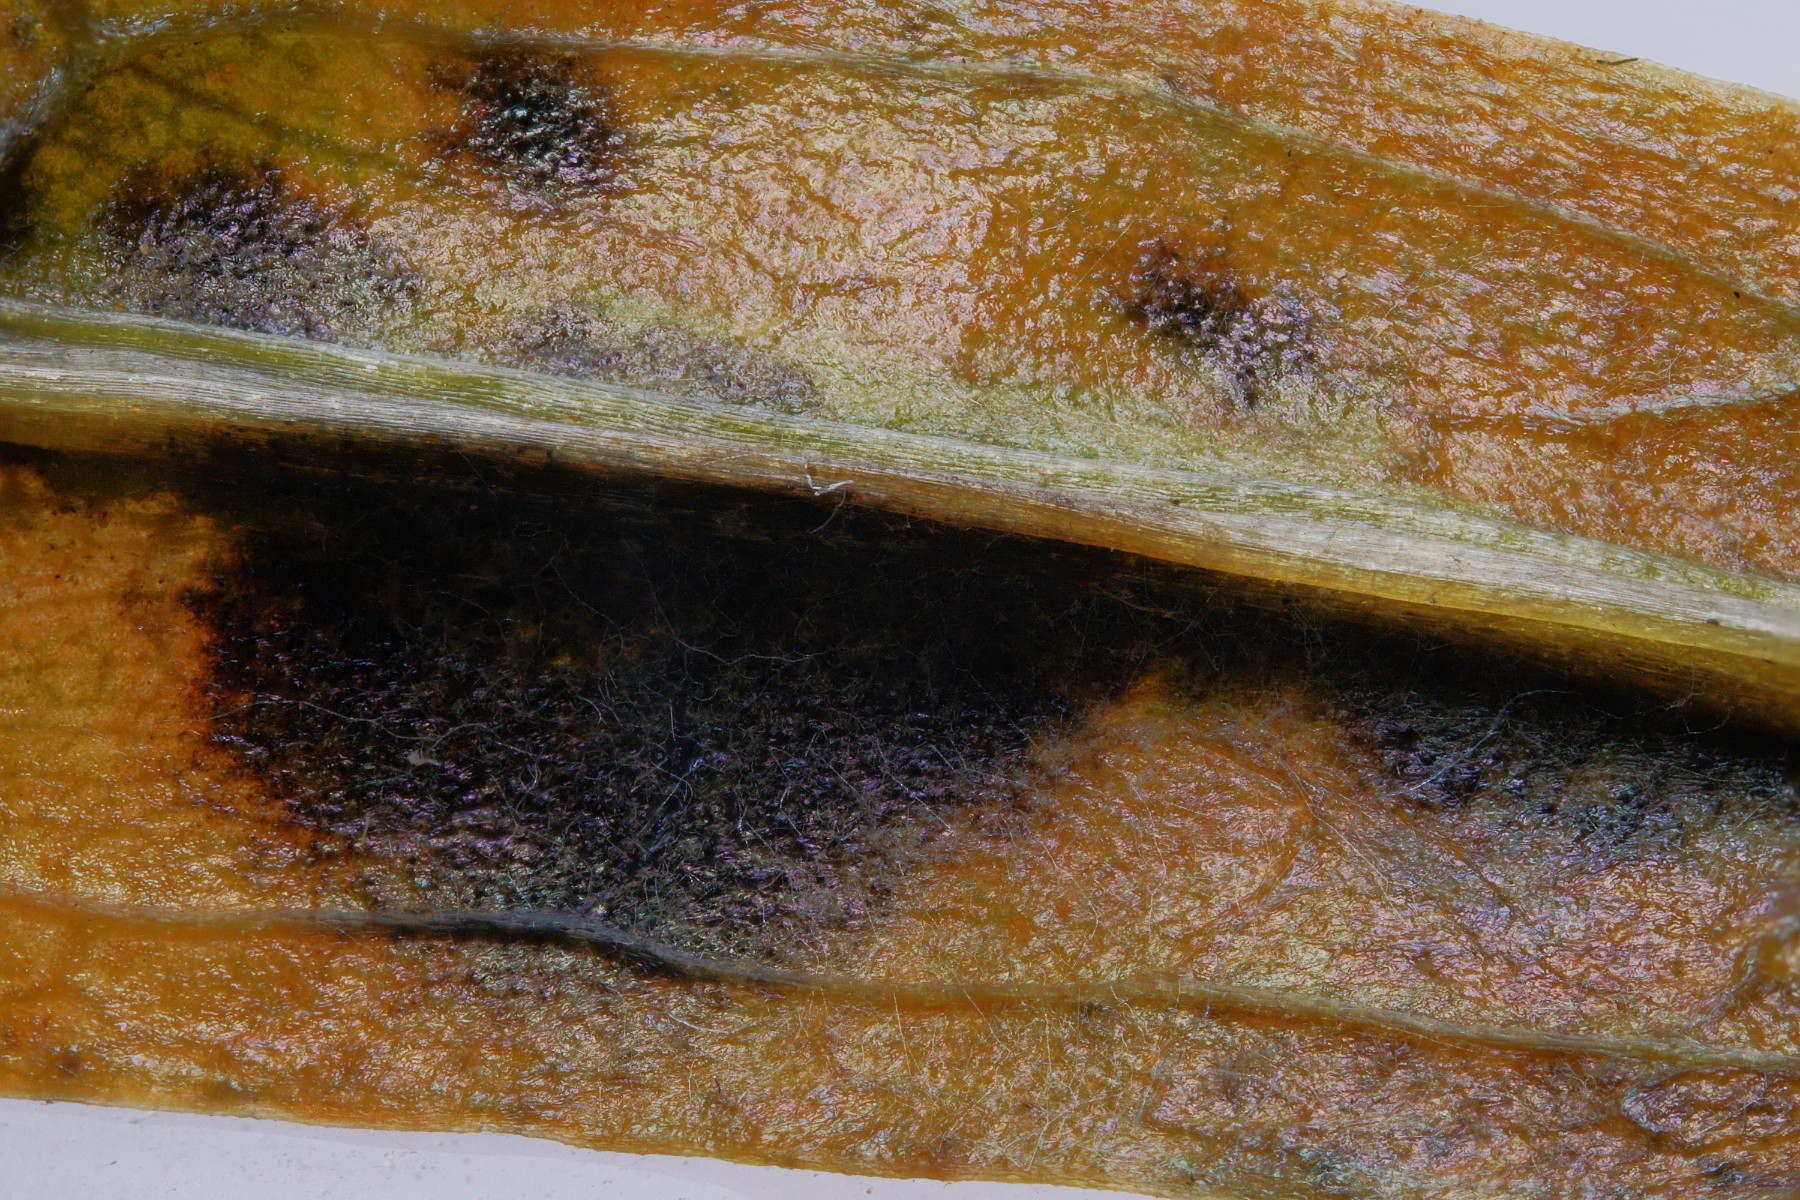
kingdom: Fungi
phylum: Ascomycota
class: Dothideomycetes
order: Mycosphaerellales
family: Mycosphaerellaceae
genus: Cercospora
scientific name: Cercospora resedae
